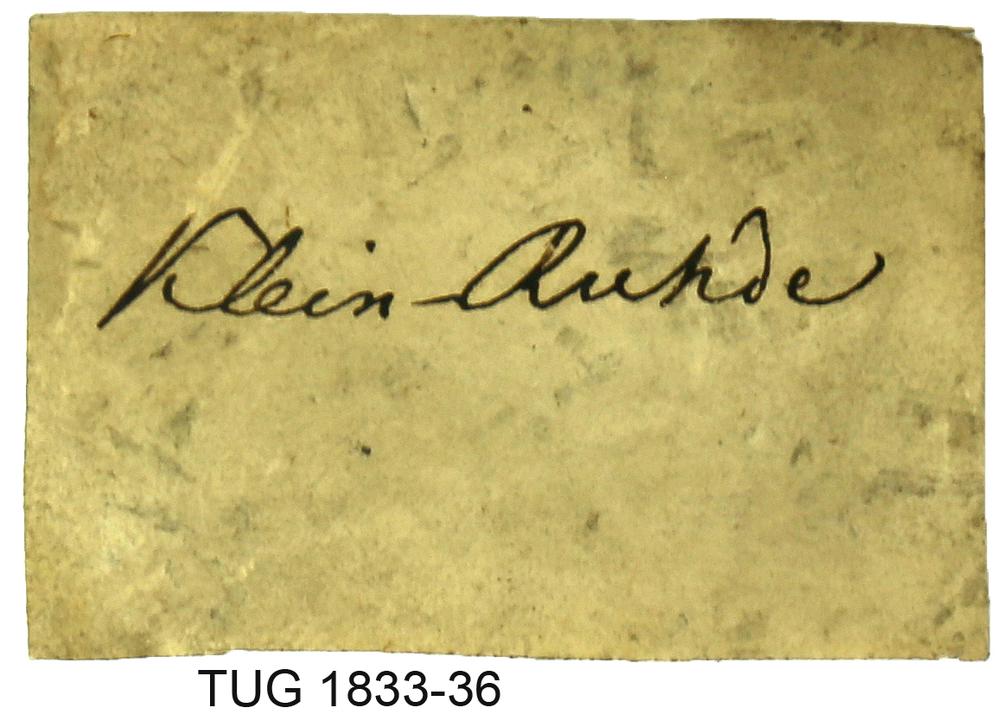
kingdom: Animalia
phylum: Porifera
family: Stromatoporidae
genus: Stromatopora
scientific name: Stromatopora
